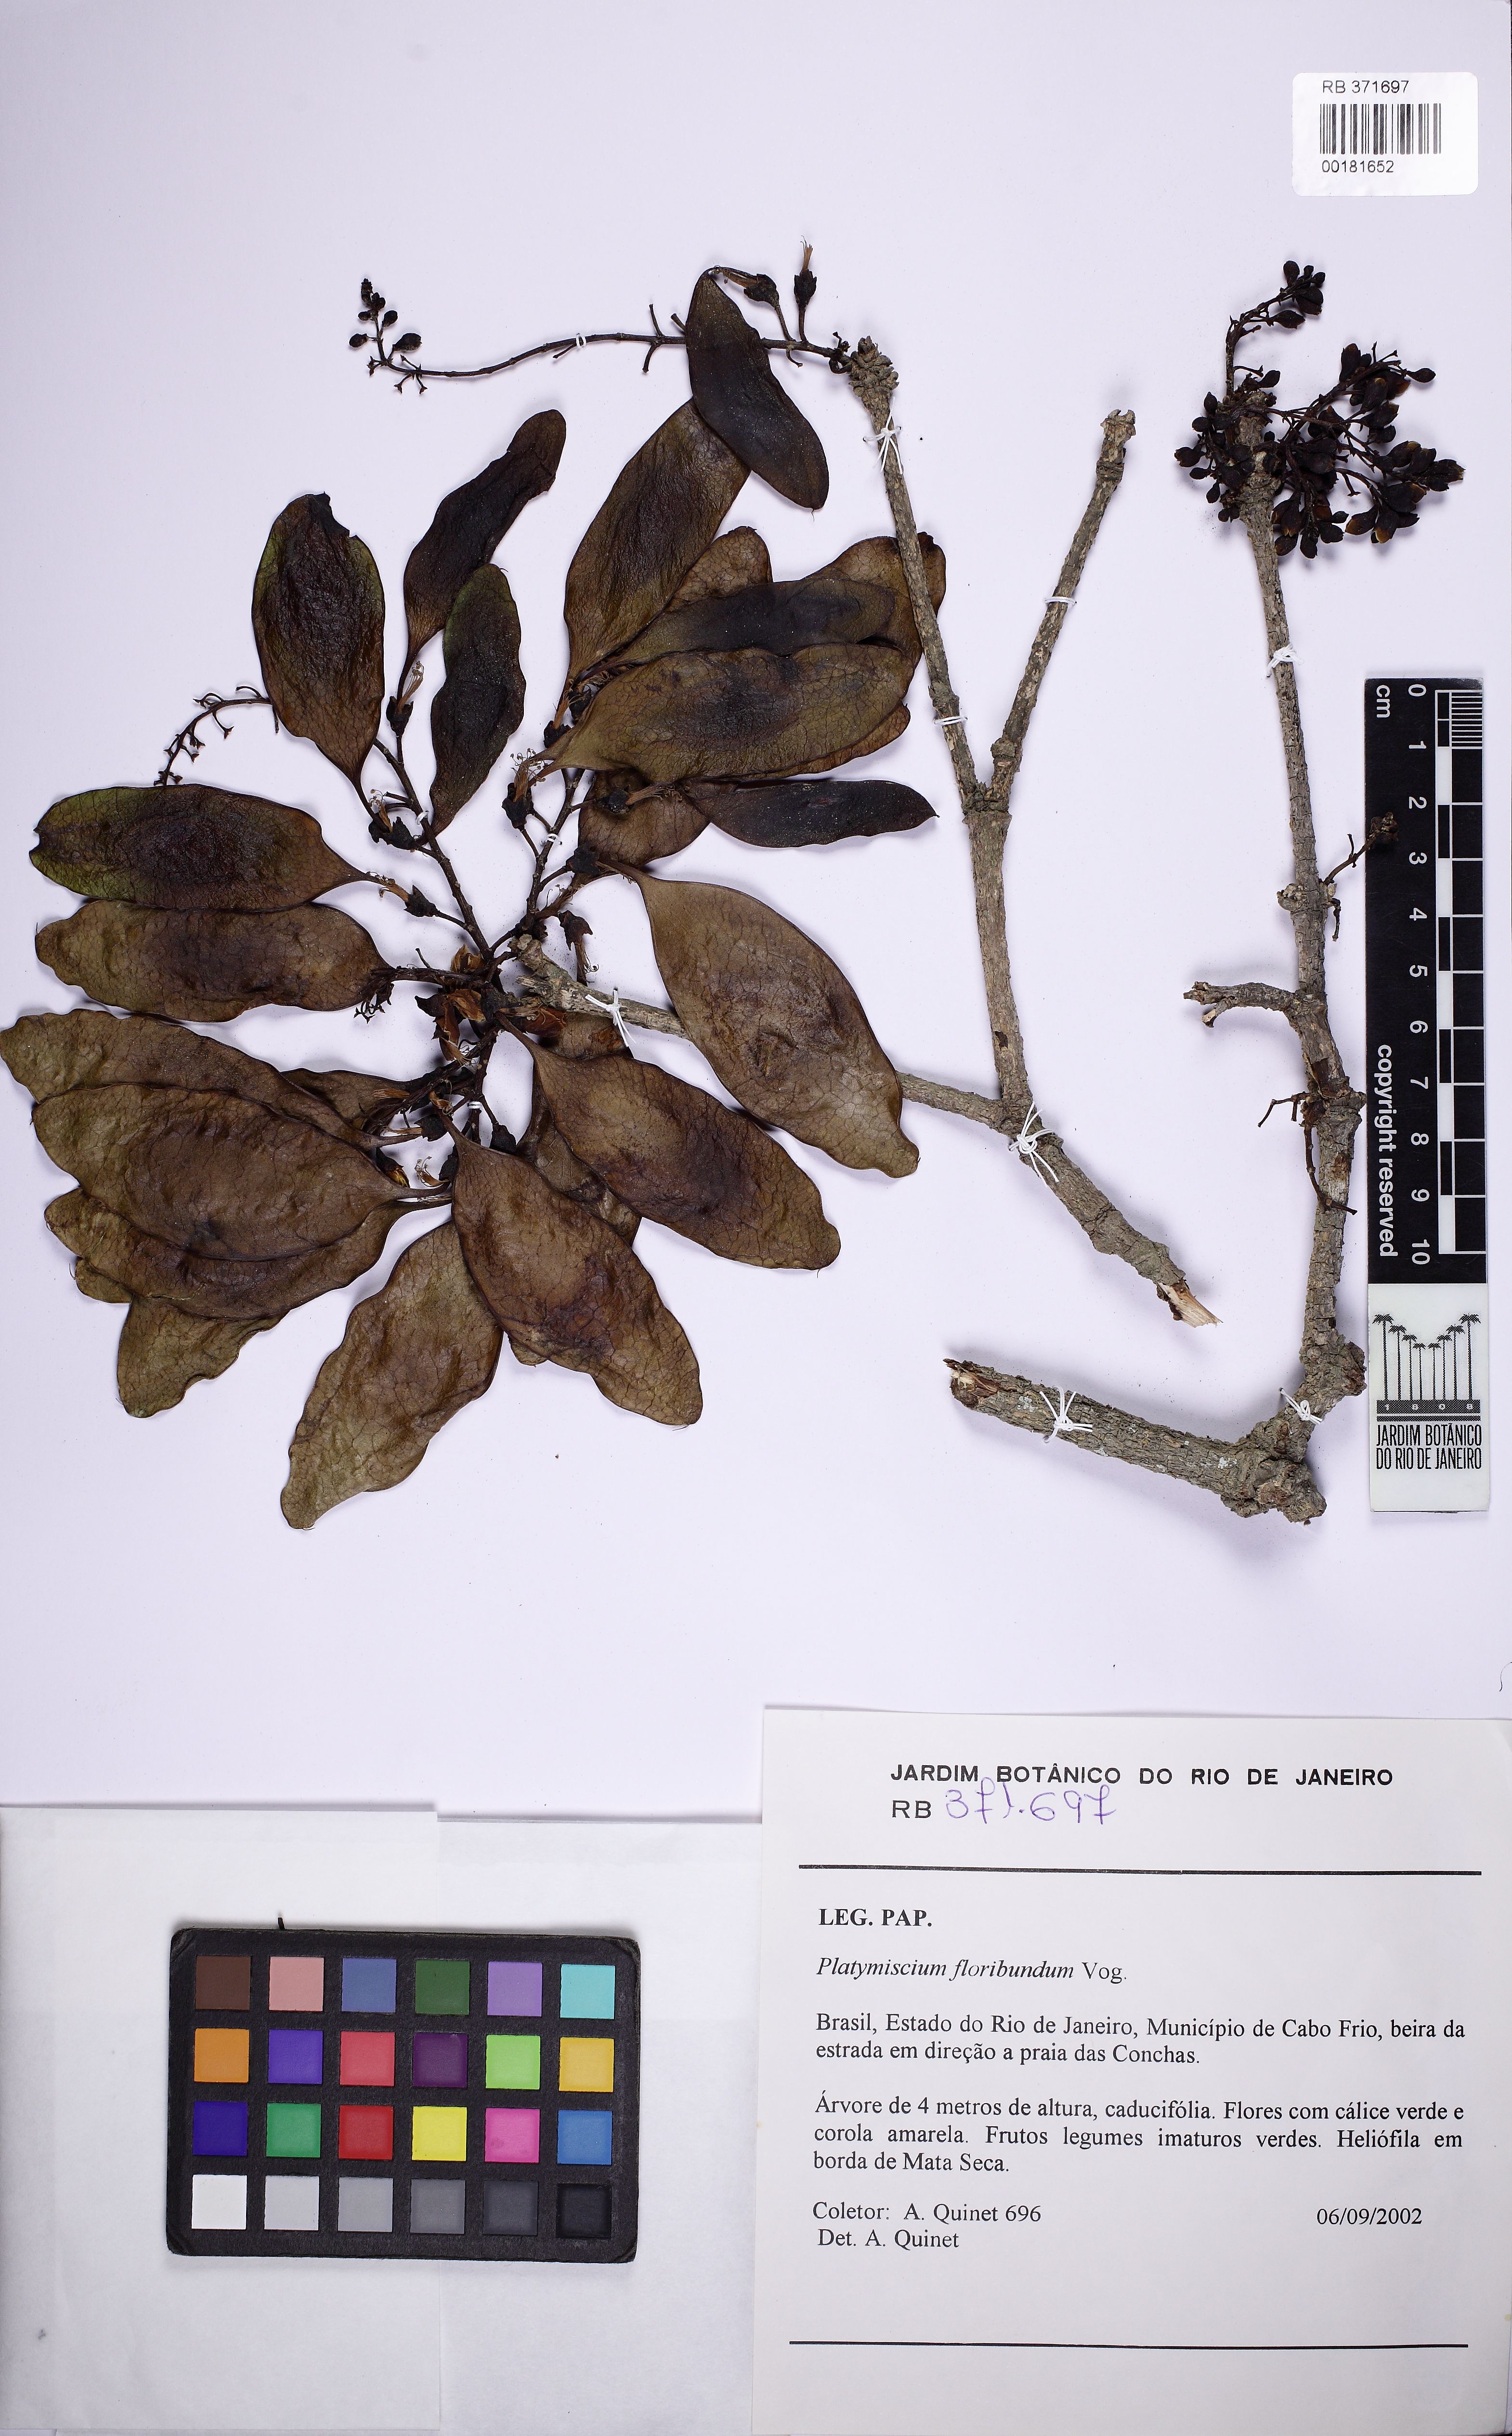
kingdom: Plantae
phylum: Tracheophyta
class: Magnoliopsida
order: Fabales
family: Fabaceae
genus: Platymiscium
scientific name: Platymiscium floribundum
